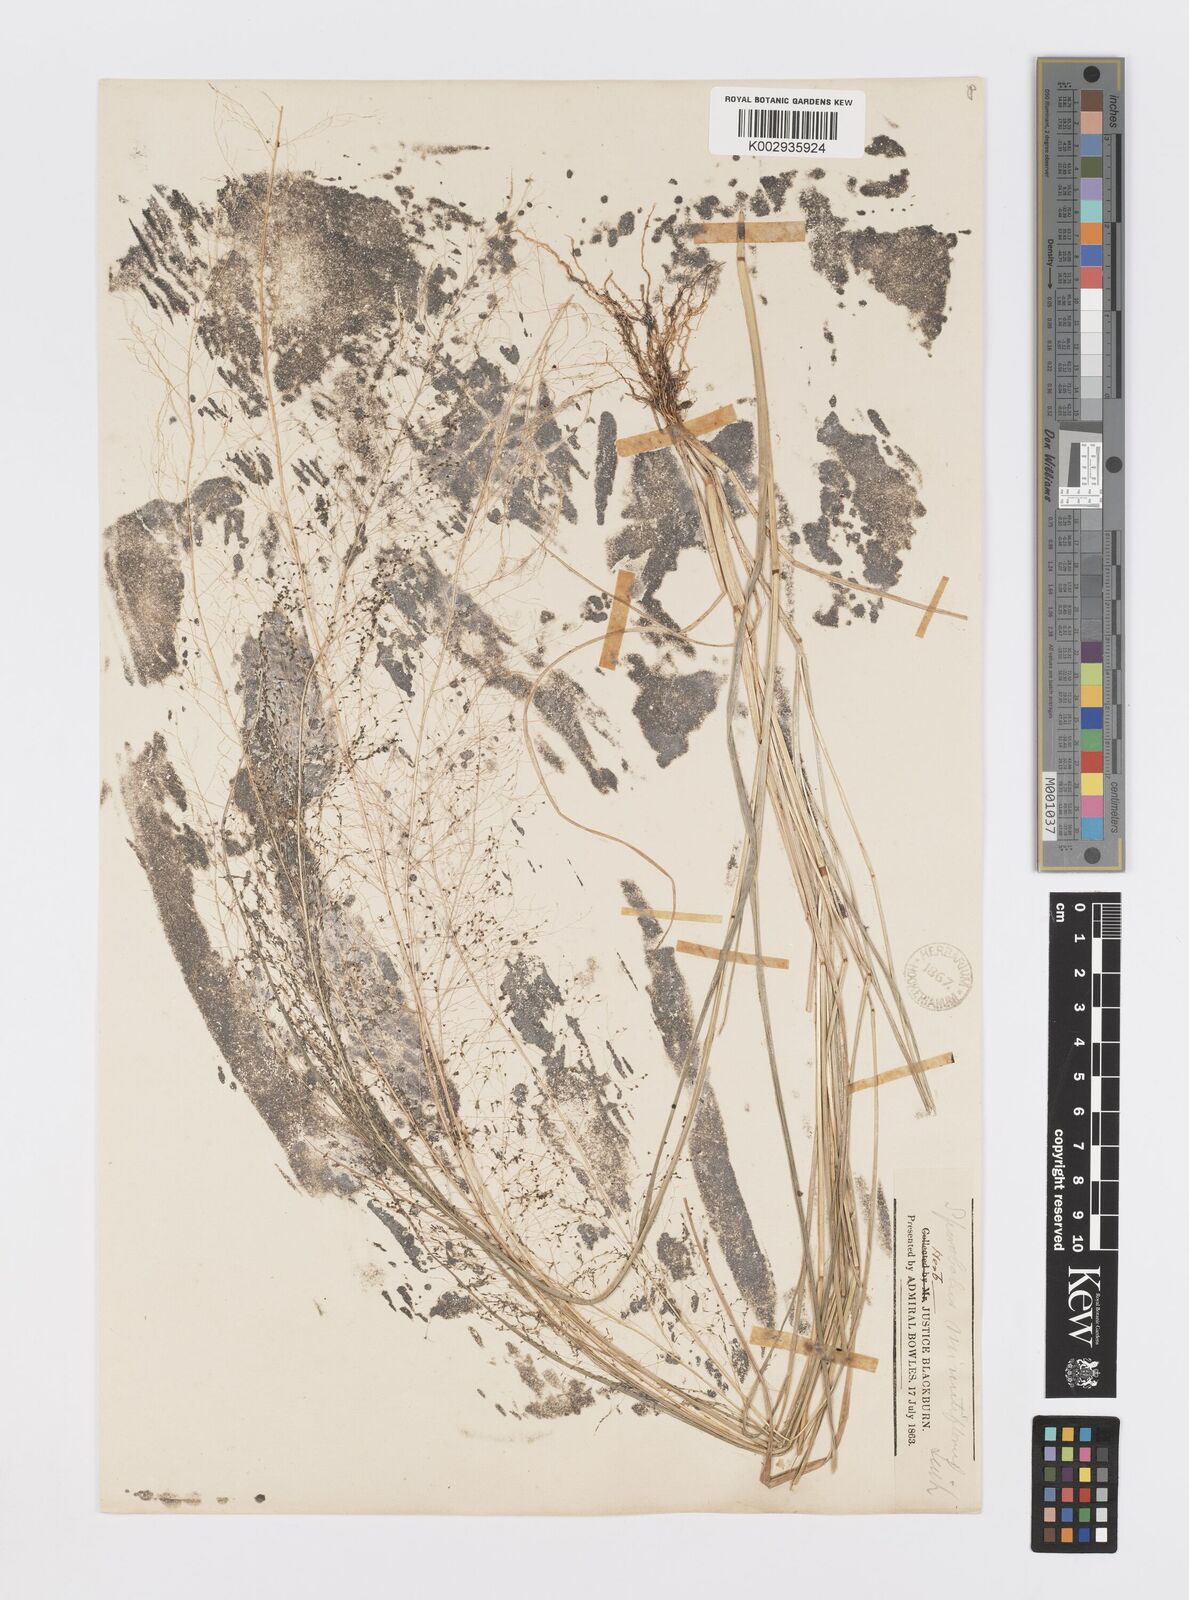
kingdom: Plantae
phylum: Tracheophyta
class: Liliopsida
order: Poales
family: Poaceae
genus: Sporobolus
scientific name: Sporobolus tenuissimus
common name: Tropical dropseed
